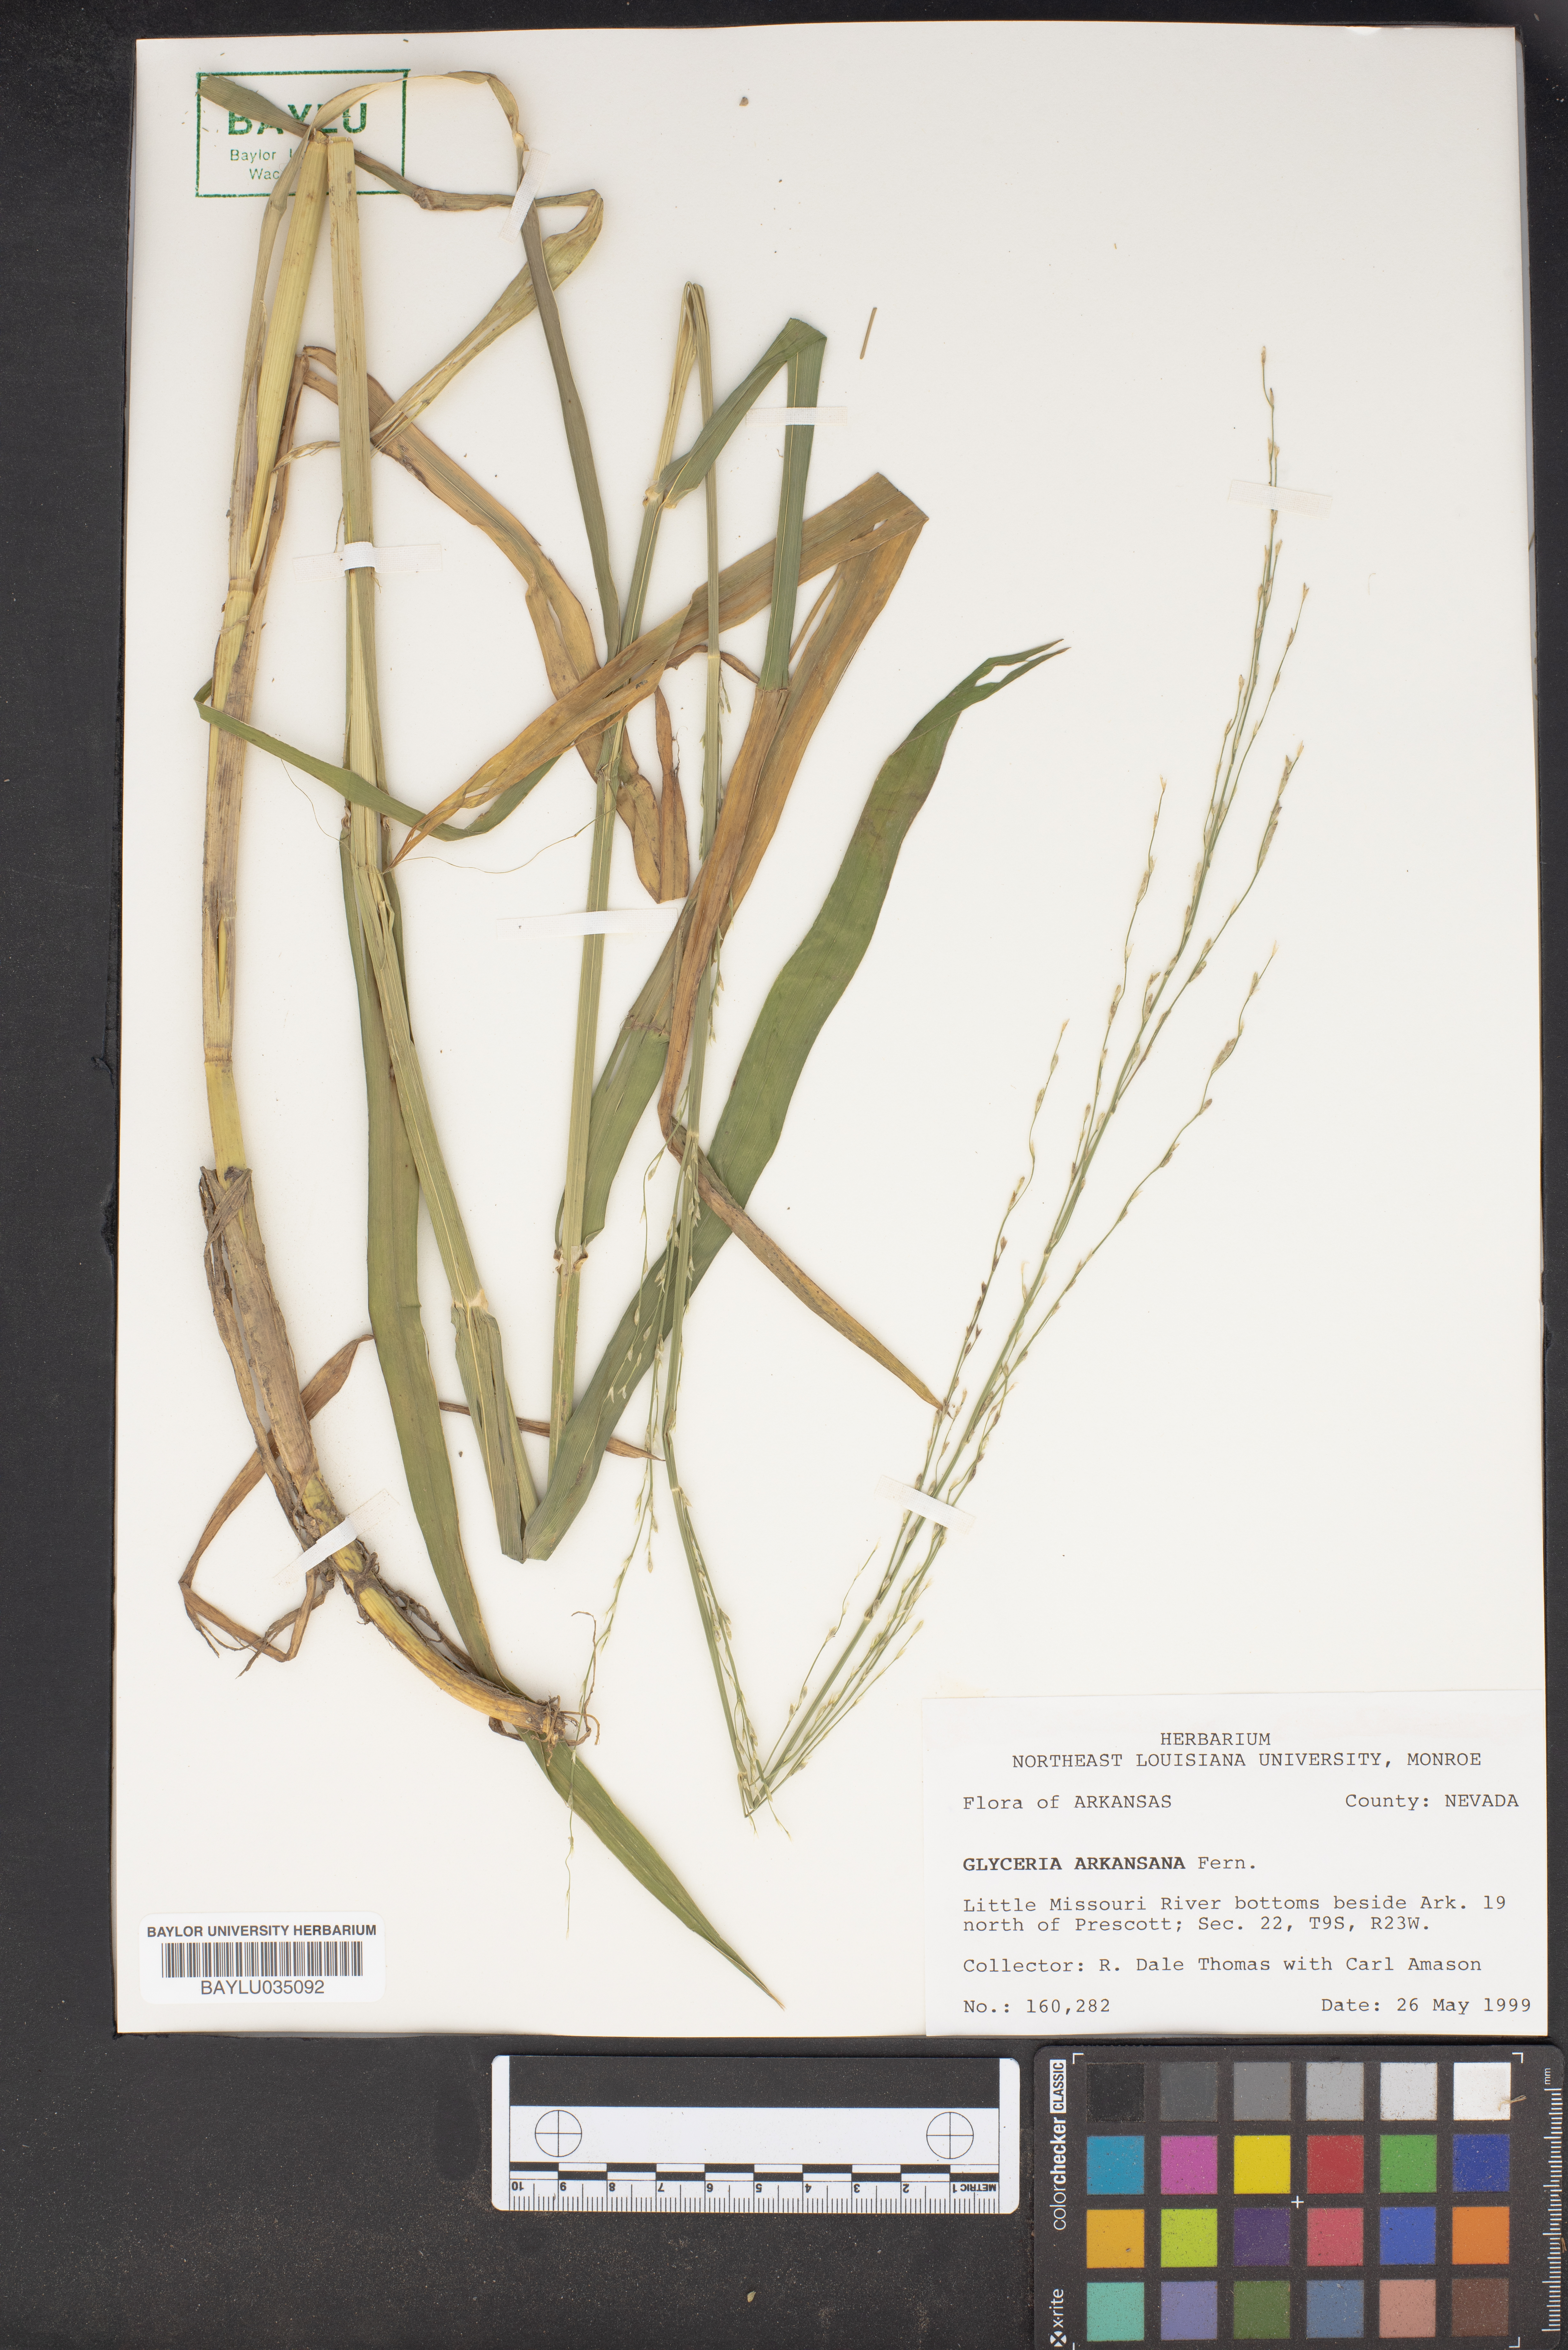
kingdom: Plantae
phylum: Tracheophyta
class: Liliopsida
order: Poales
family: Poaceae
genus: Glyceria
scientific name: Glyceria arkansana
